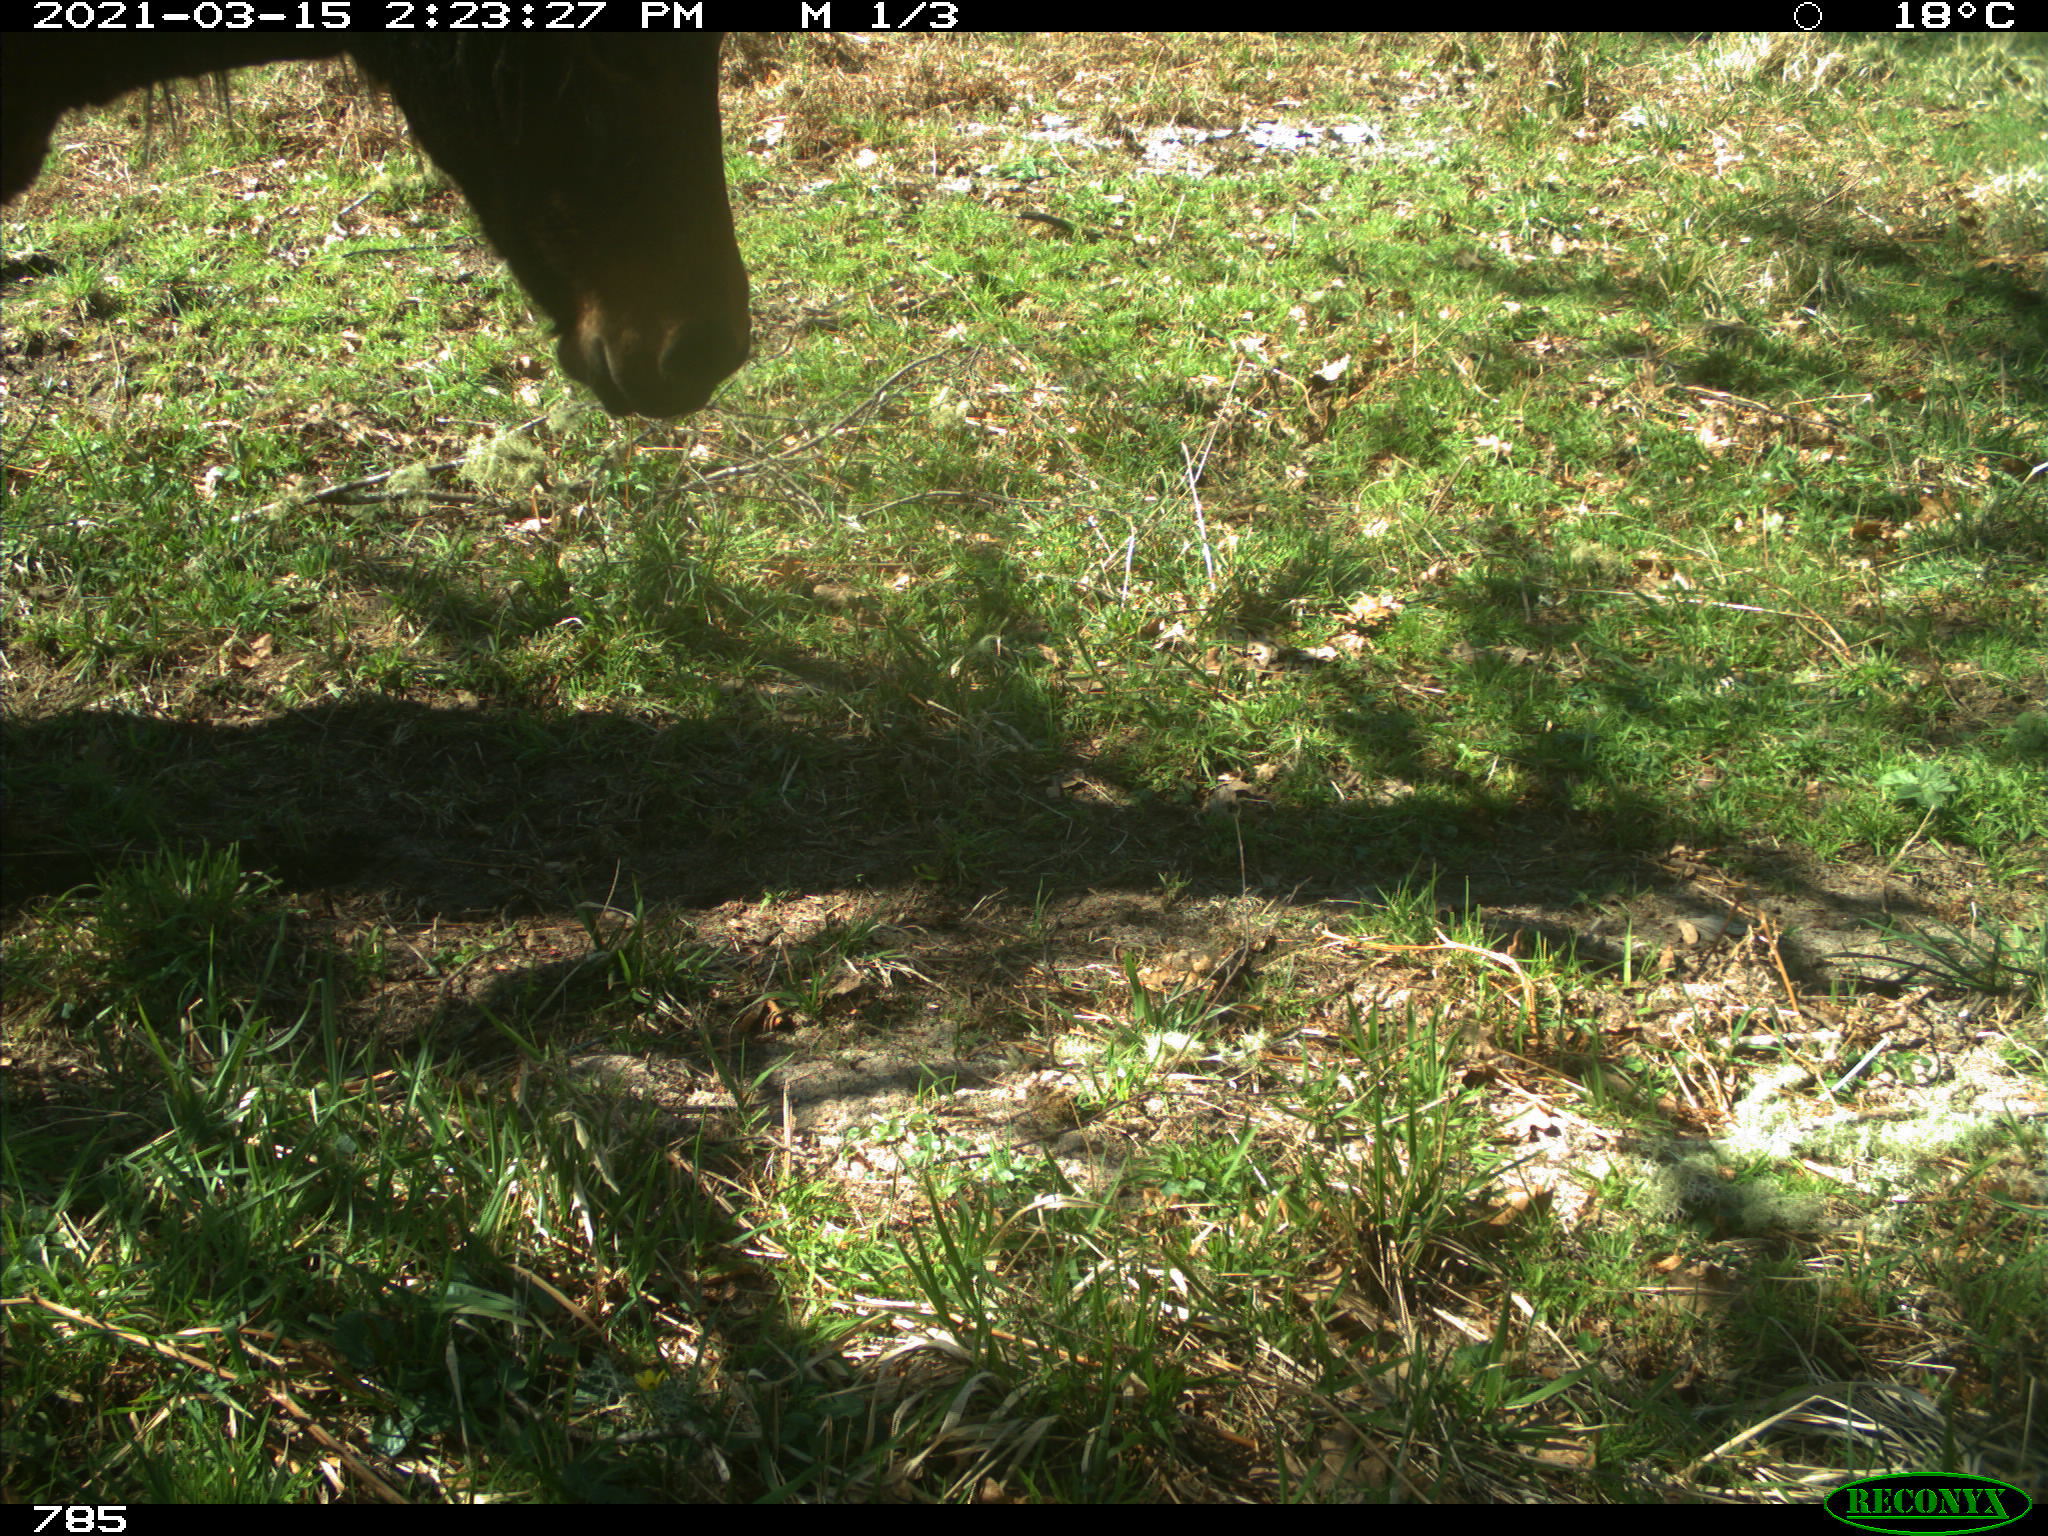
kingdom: Animalia
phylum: Chordata
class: Mammalia
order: Perissodactyla
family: Equidae
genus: Equus
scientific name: Equus caballus
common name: Horse
